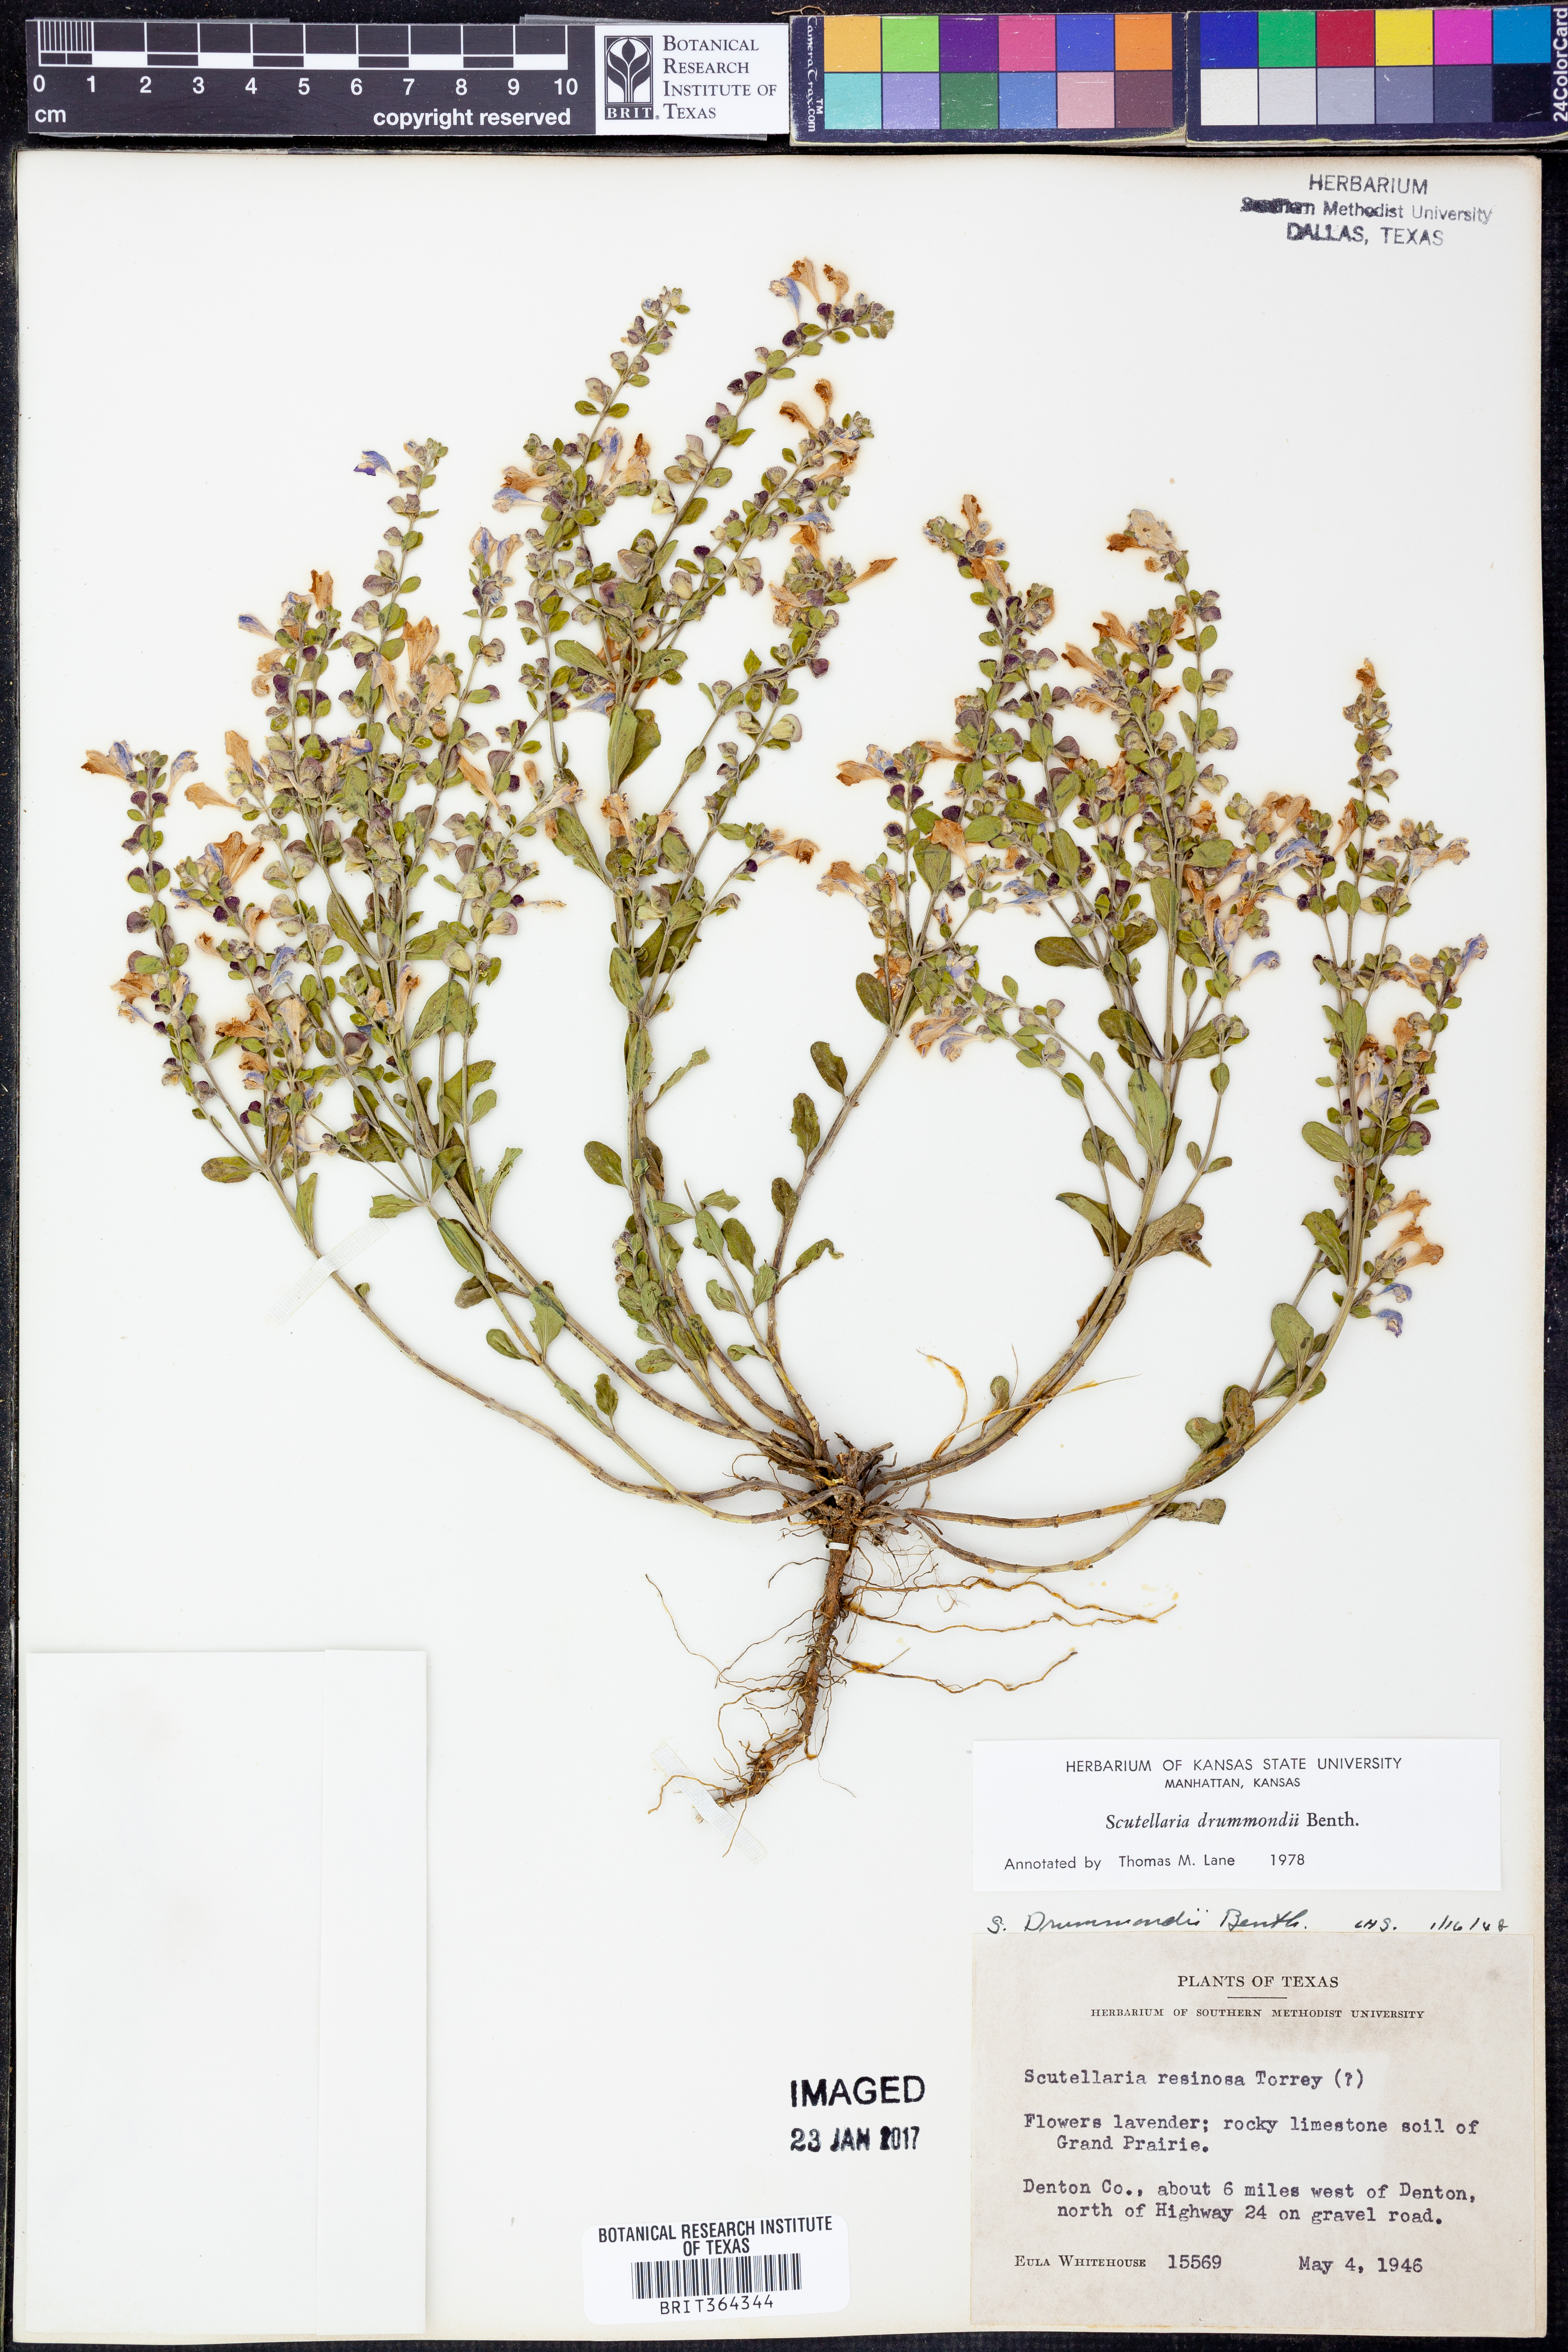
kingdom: Plantae
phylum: Tracheophyta
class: Magnoliopsida
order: Lamiales
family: Lamiaceae
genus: Scutellaria
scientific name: Scutellaria drummondii
